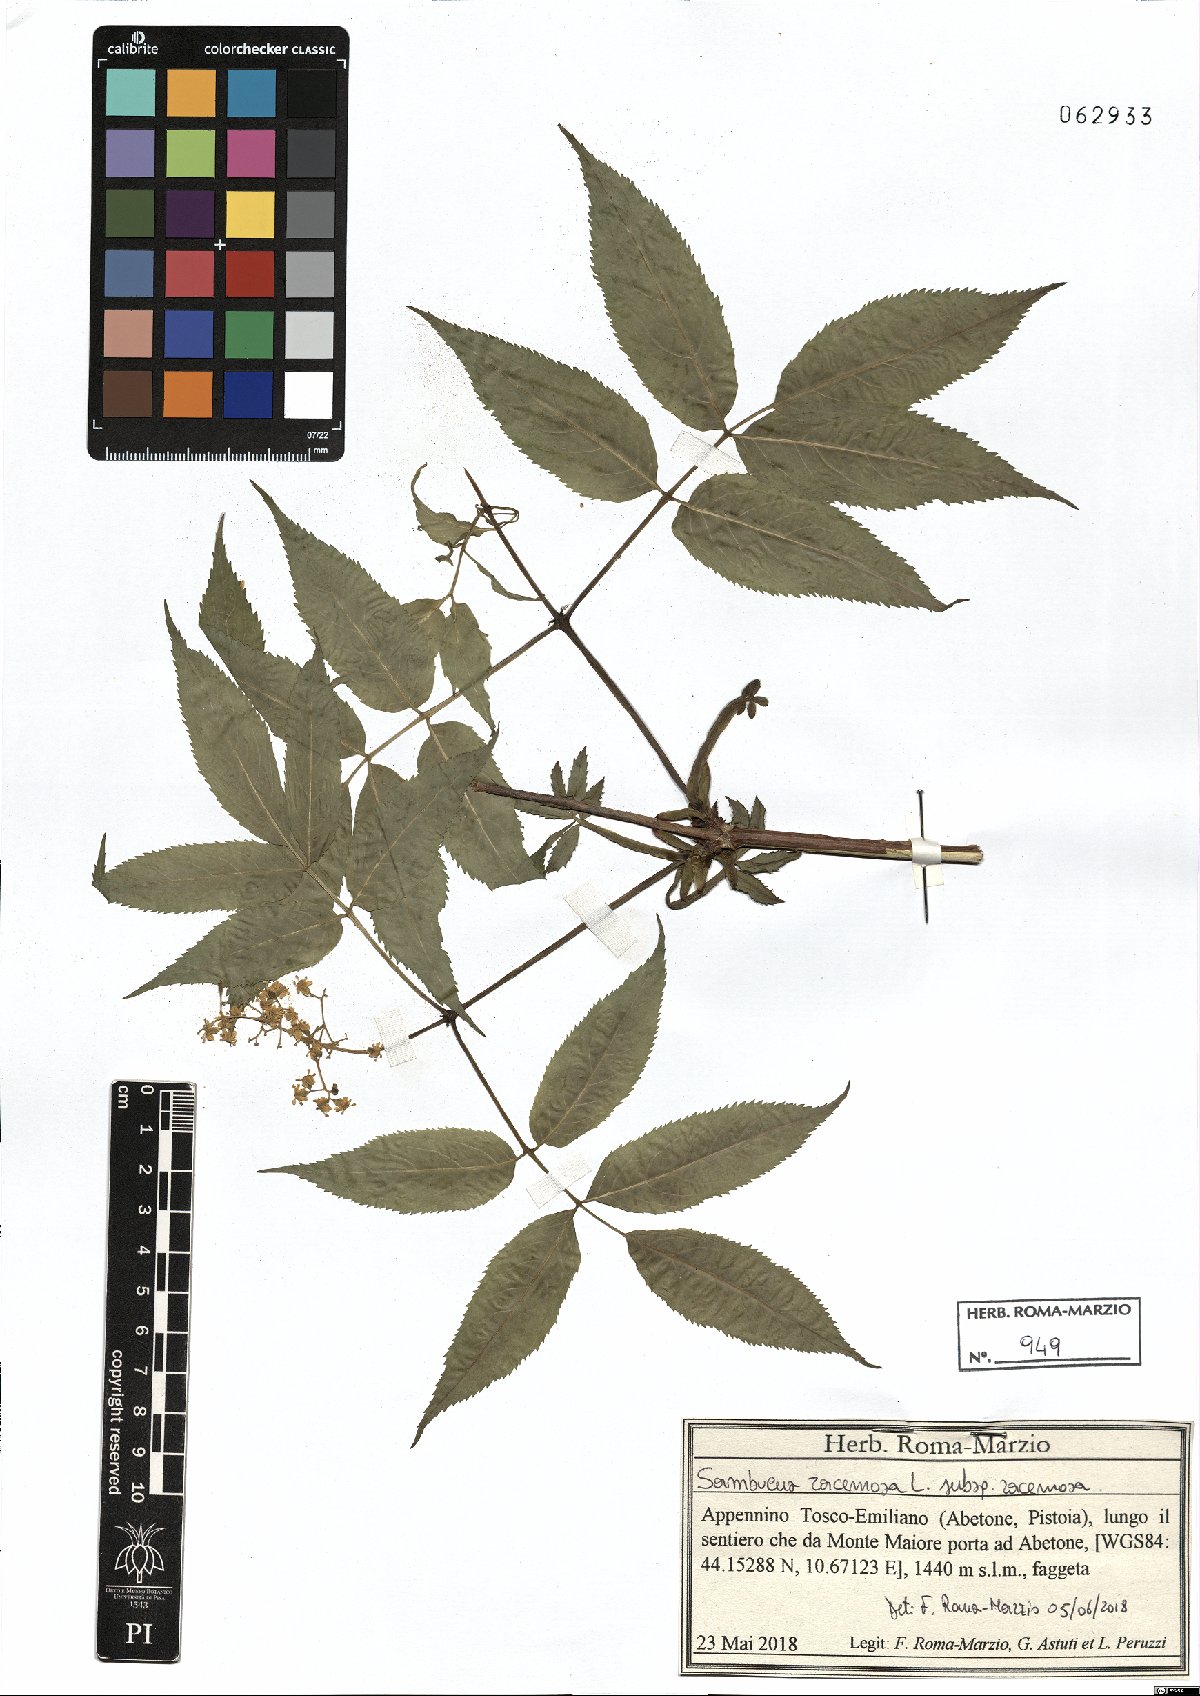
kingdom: Plantae
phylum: Tracheophyta
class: Magnoliopsida
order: Dipsacales
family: Viburnaceae
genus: Sambucus
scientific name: Sambucus racemosa
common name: Red-berried elder
